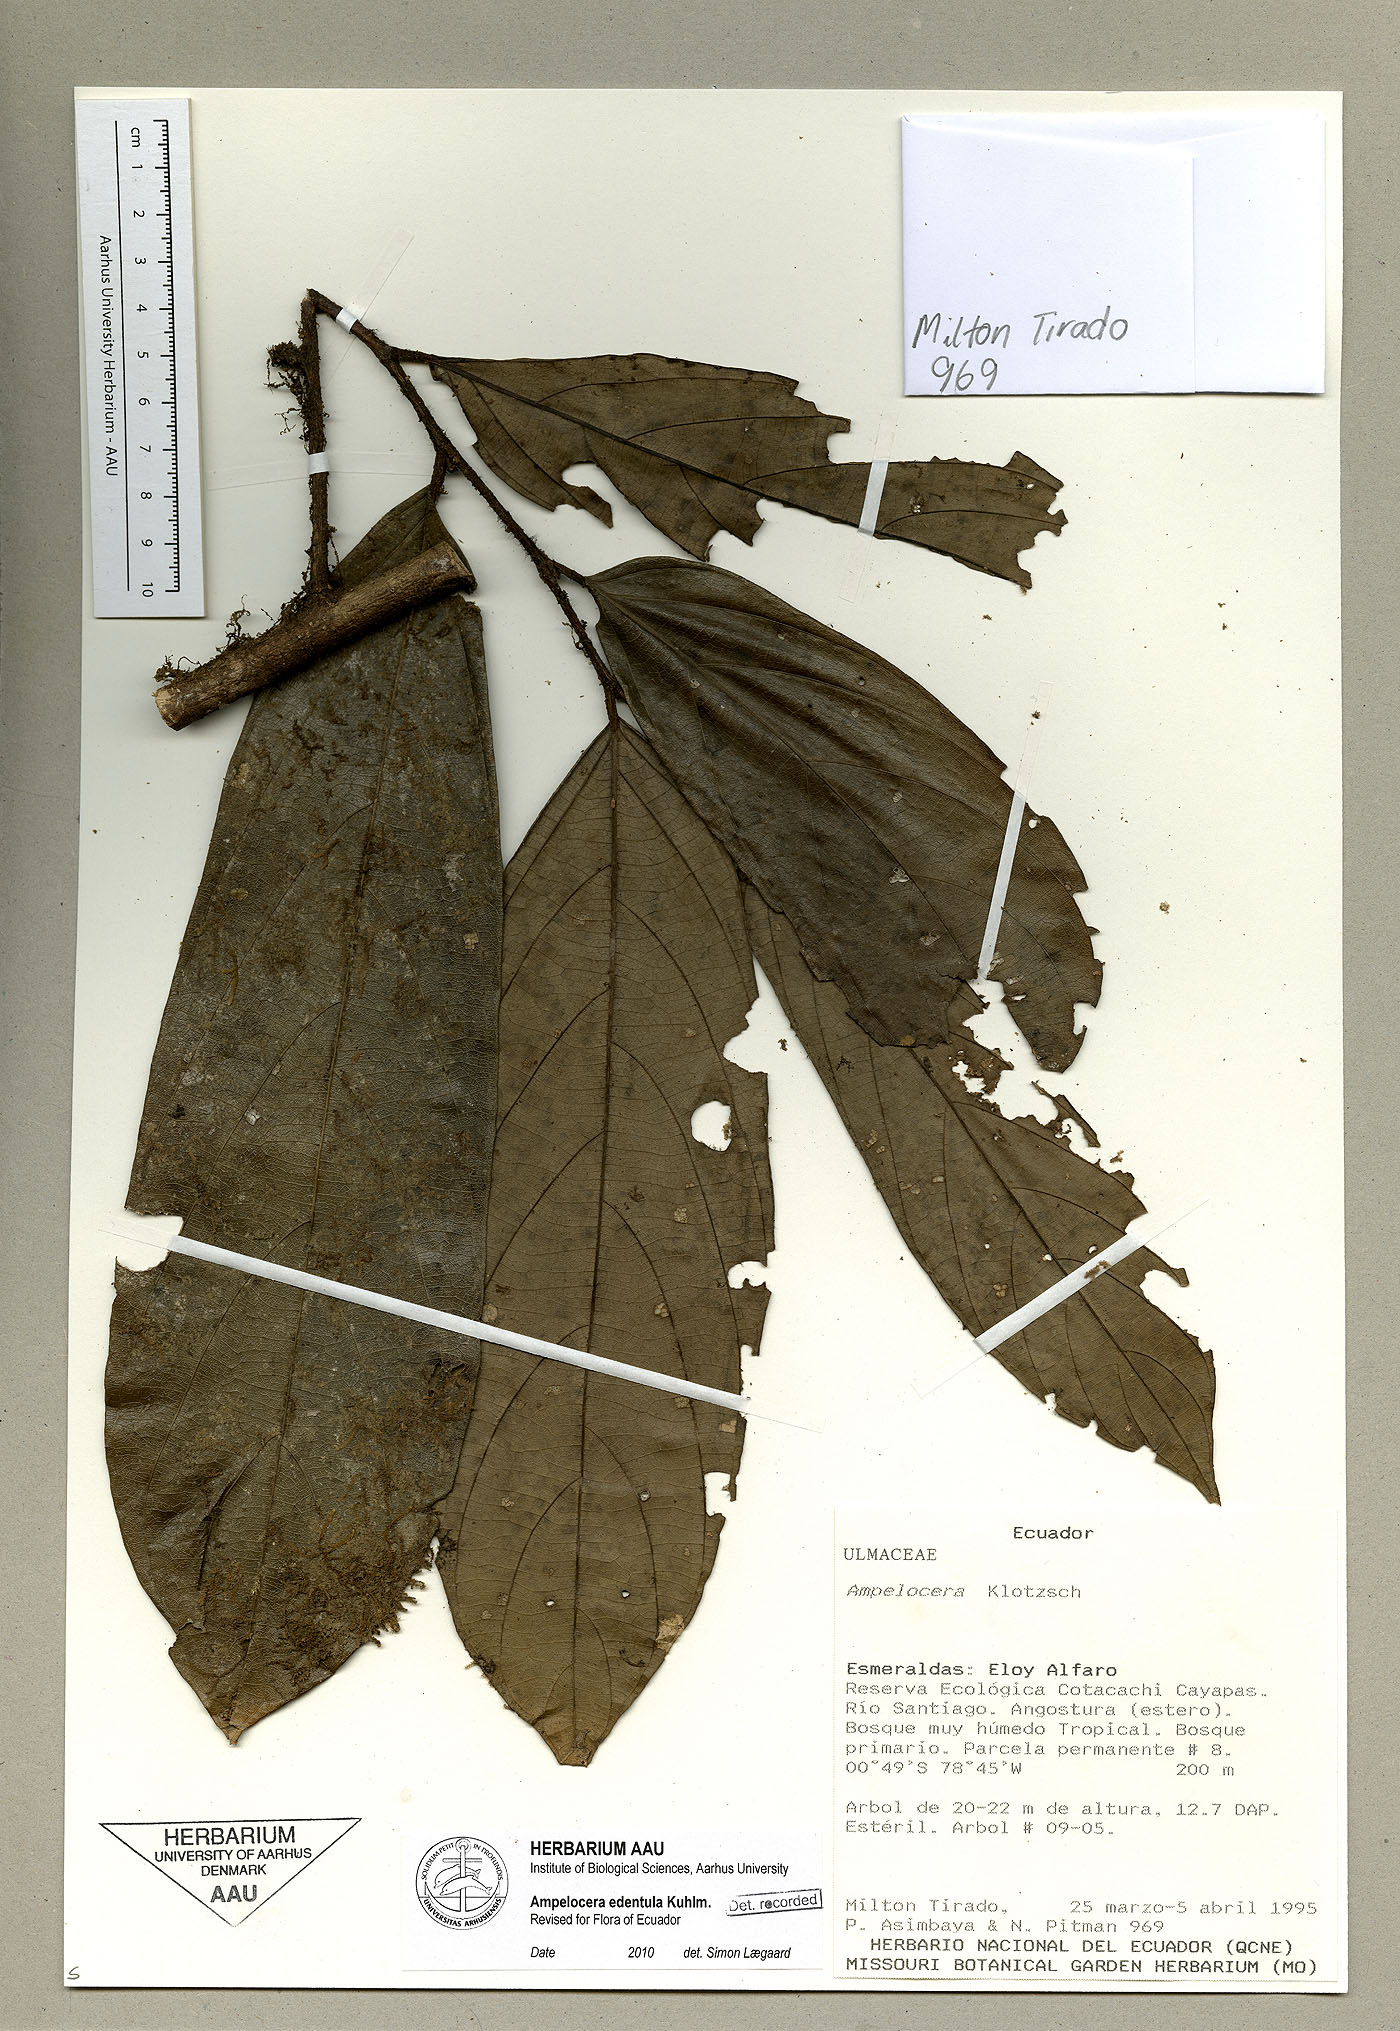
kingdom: Plantae
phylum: Tracheophyta
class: Magnoliopsida
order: Rosales
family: Cannabaceae
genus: Ampelocera
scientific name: Ampelocera edentula
